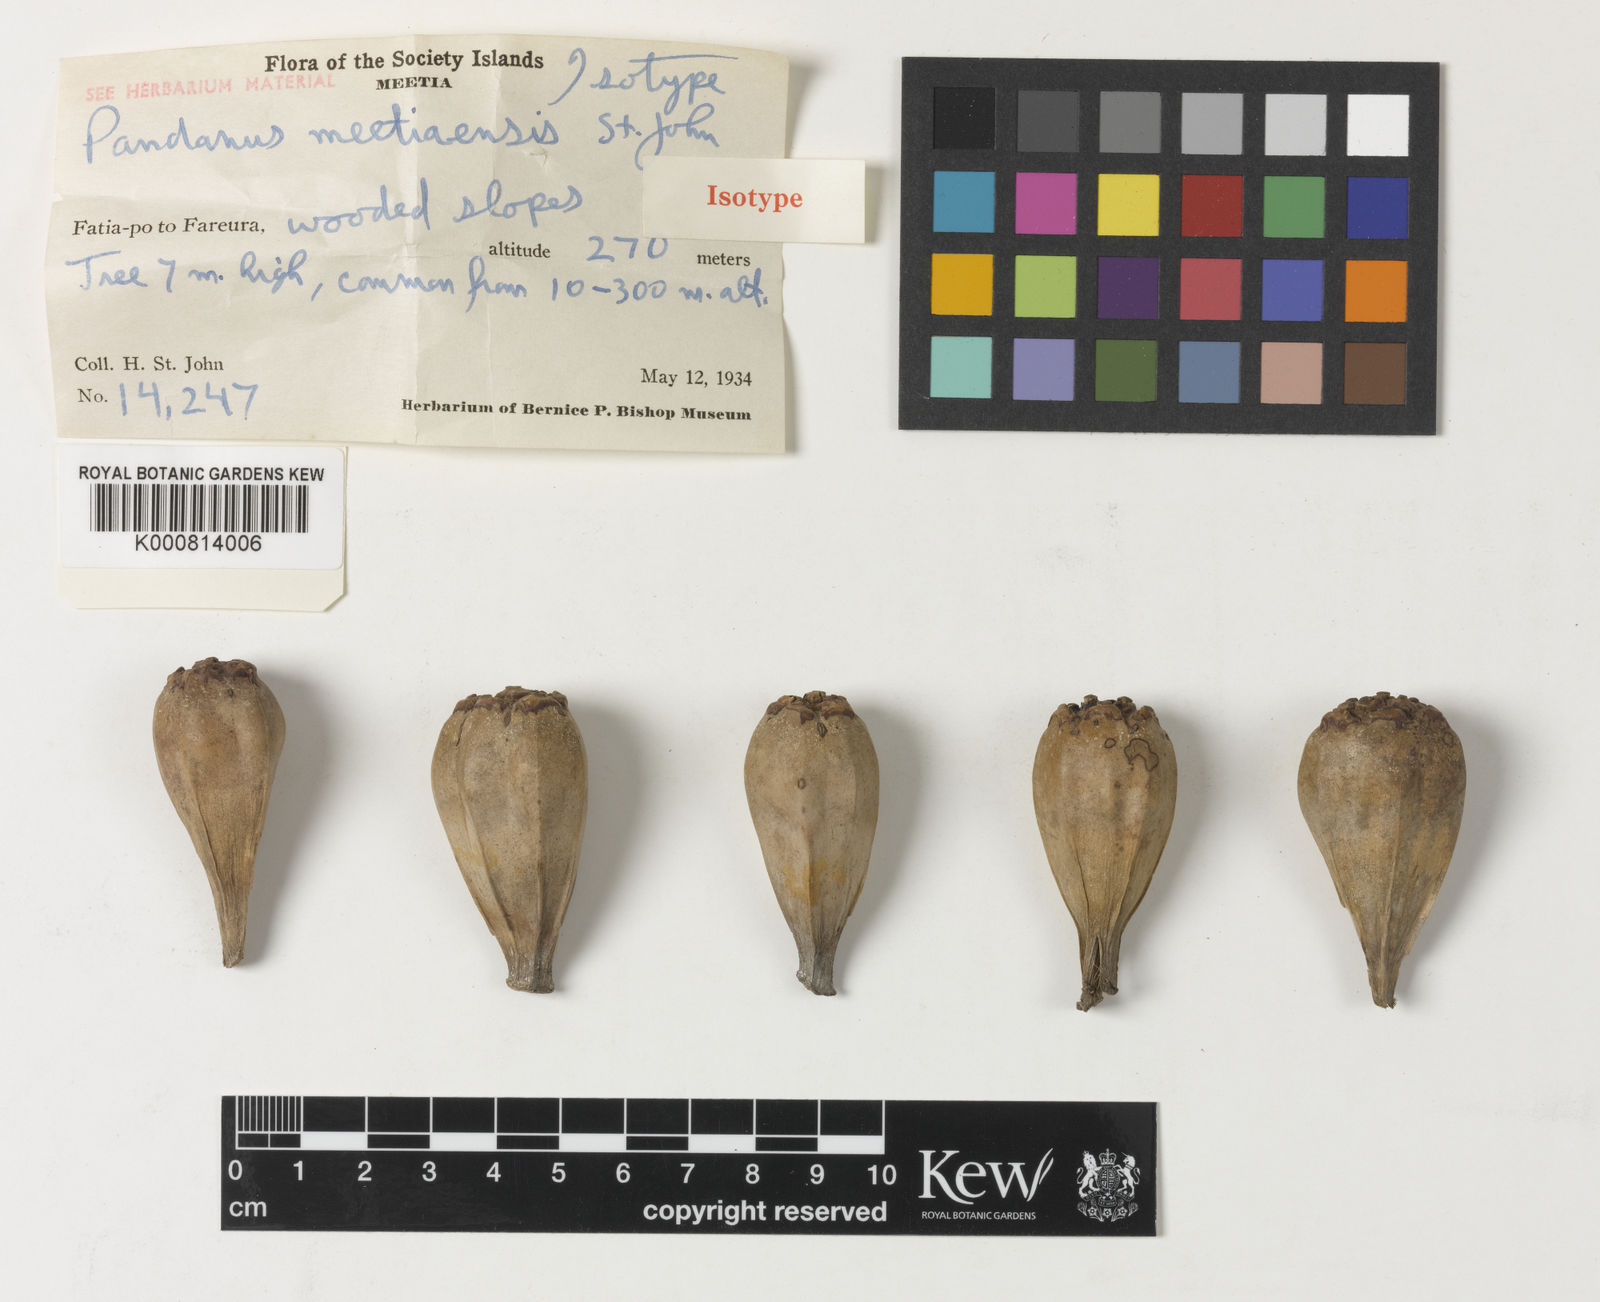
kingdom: Plantae
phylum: Tracheophyta
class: Liliopsida
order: Pandanales
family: Pandanaceae
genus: Pandanus
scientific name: Pandanus tectorius
